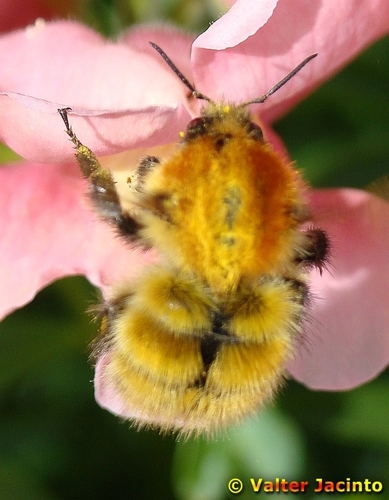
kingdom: Animalia
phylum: Arthropoda
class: Insecta
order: Hymenoptera
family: Apidae
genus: Bombus
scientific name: Bombus pascuorum
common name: Common carder bee
